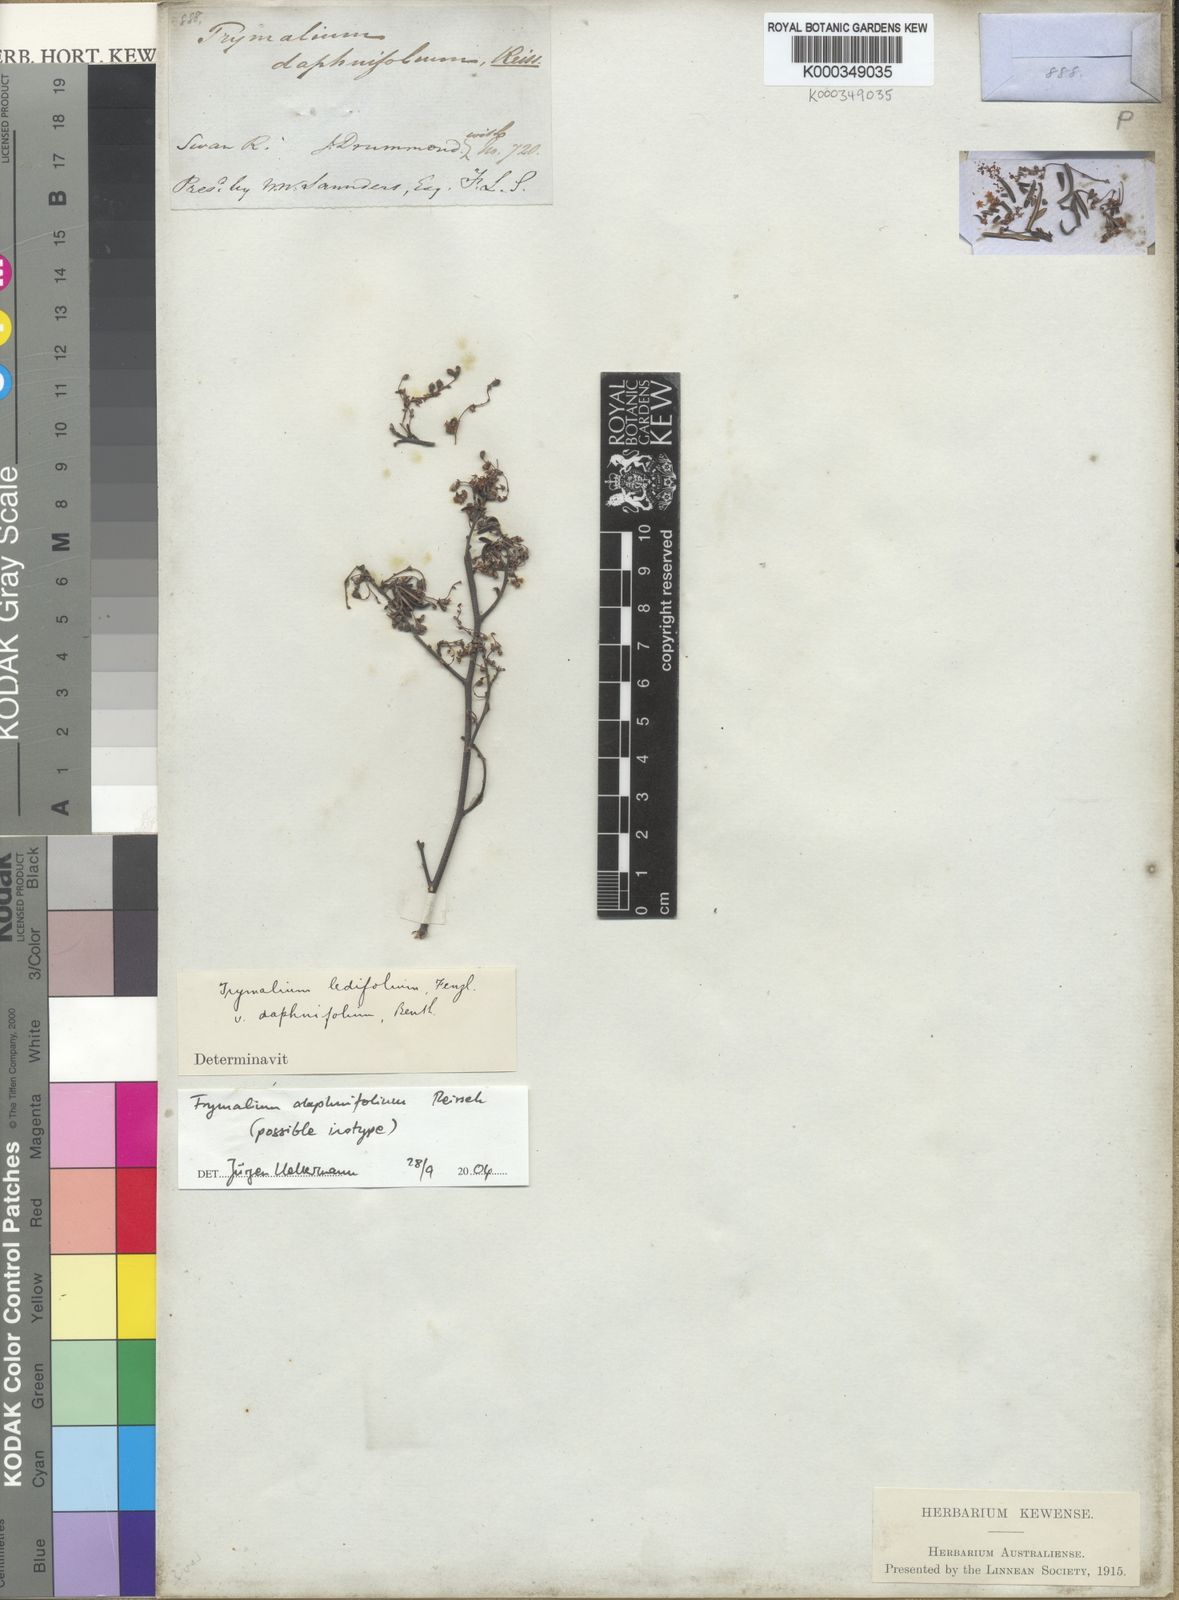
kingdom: Plantae
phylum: Tracheophyta
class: Magnoliopsida
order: Rosales
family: Rhamnaceae
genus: Polianthion
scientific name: Polianthion wichurae
